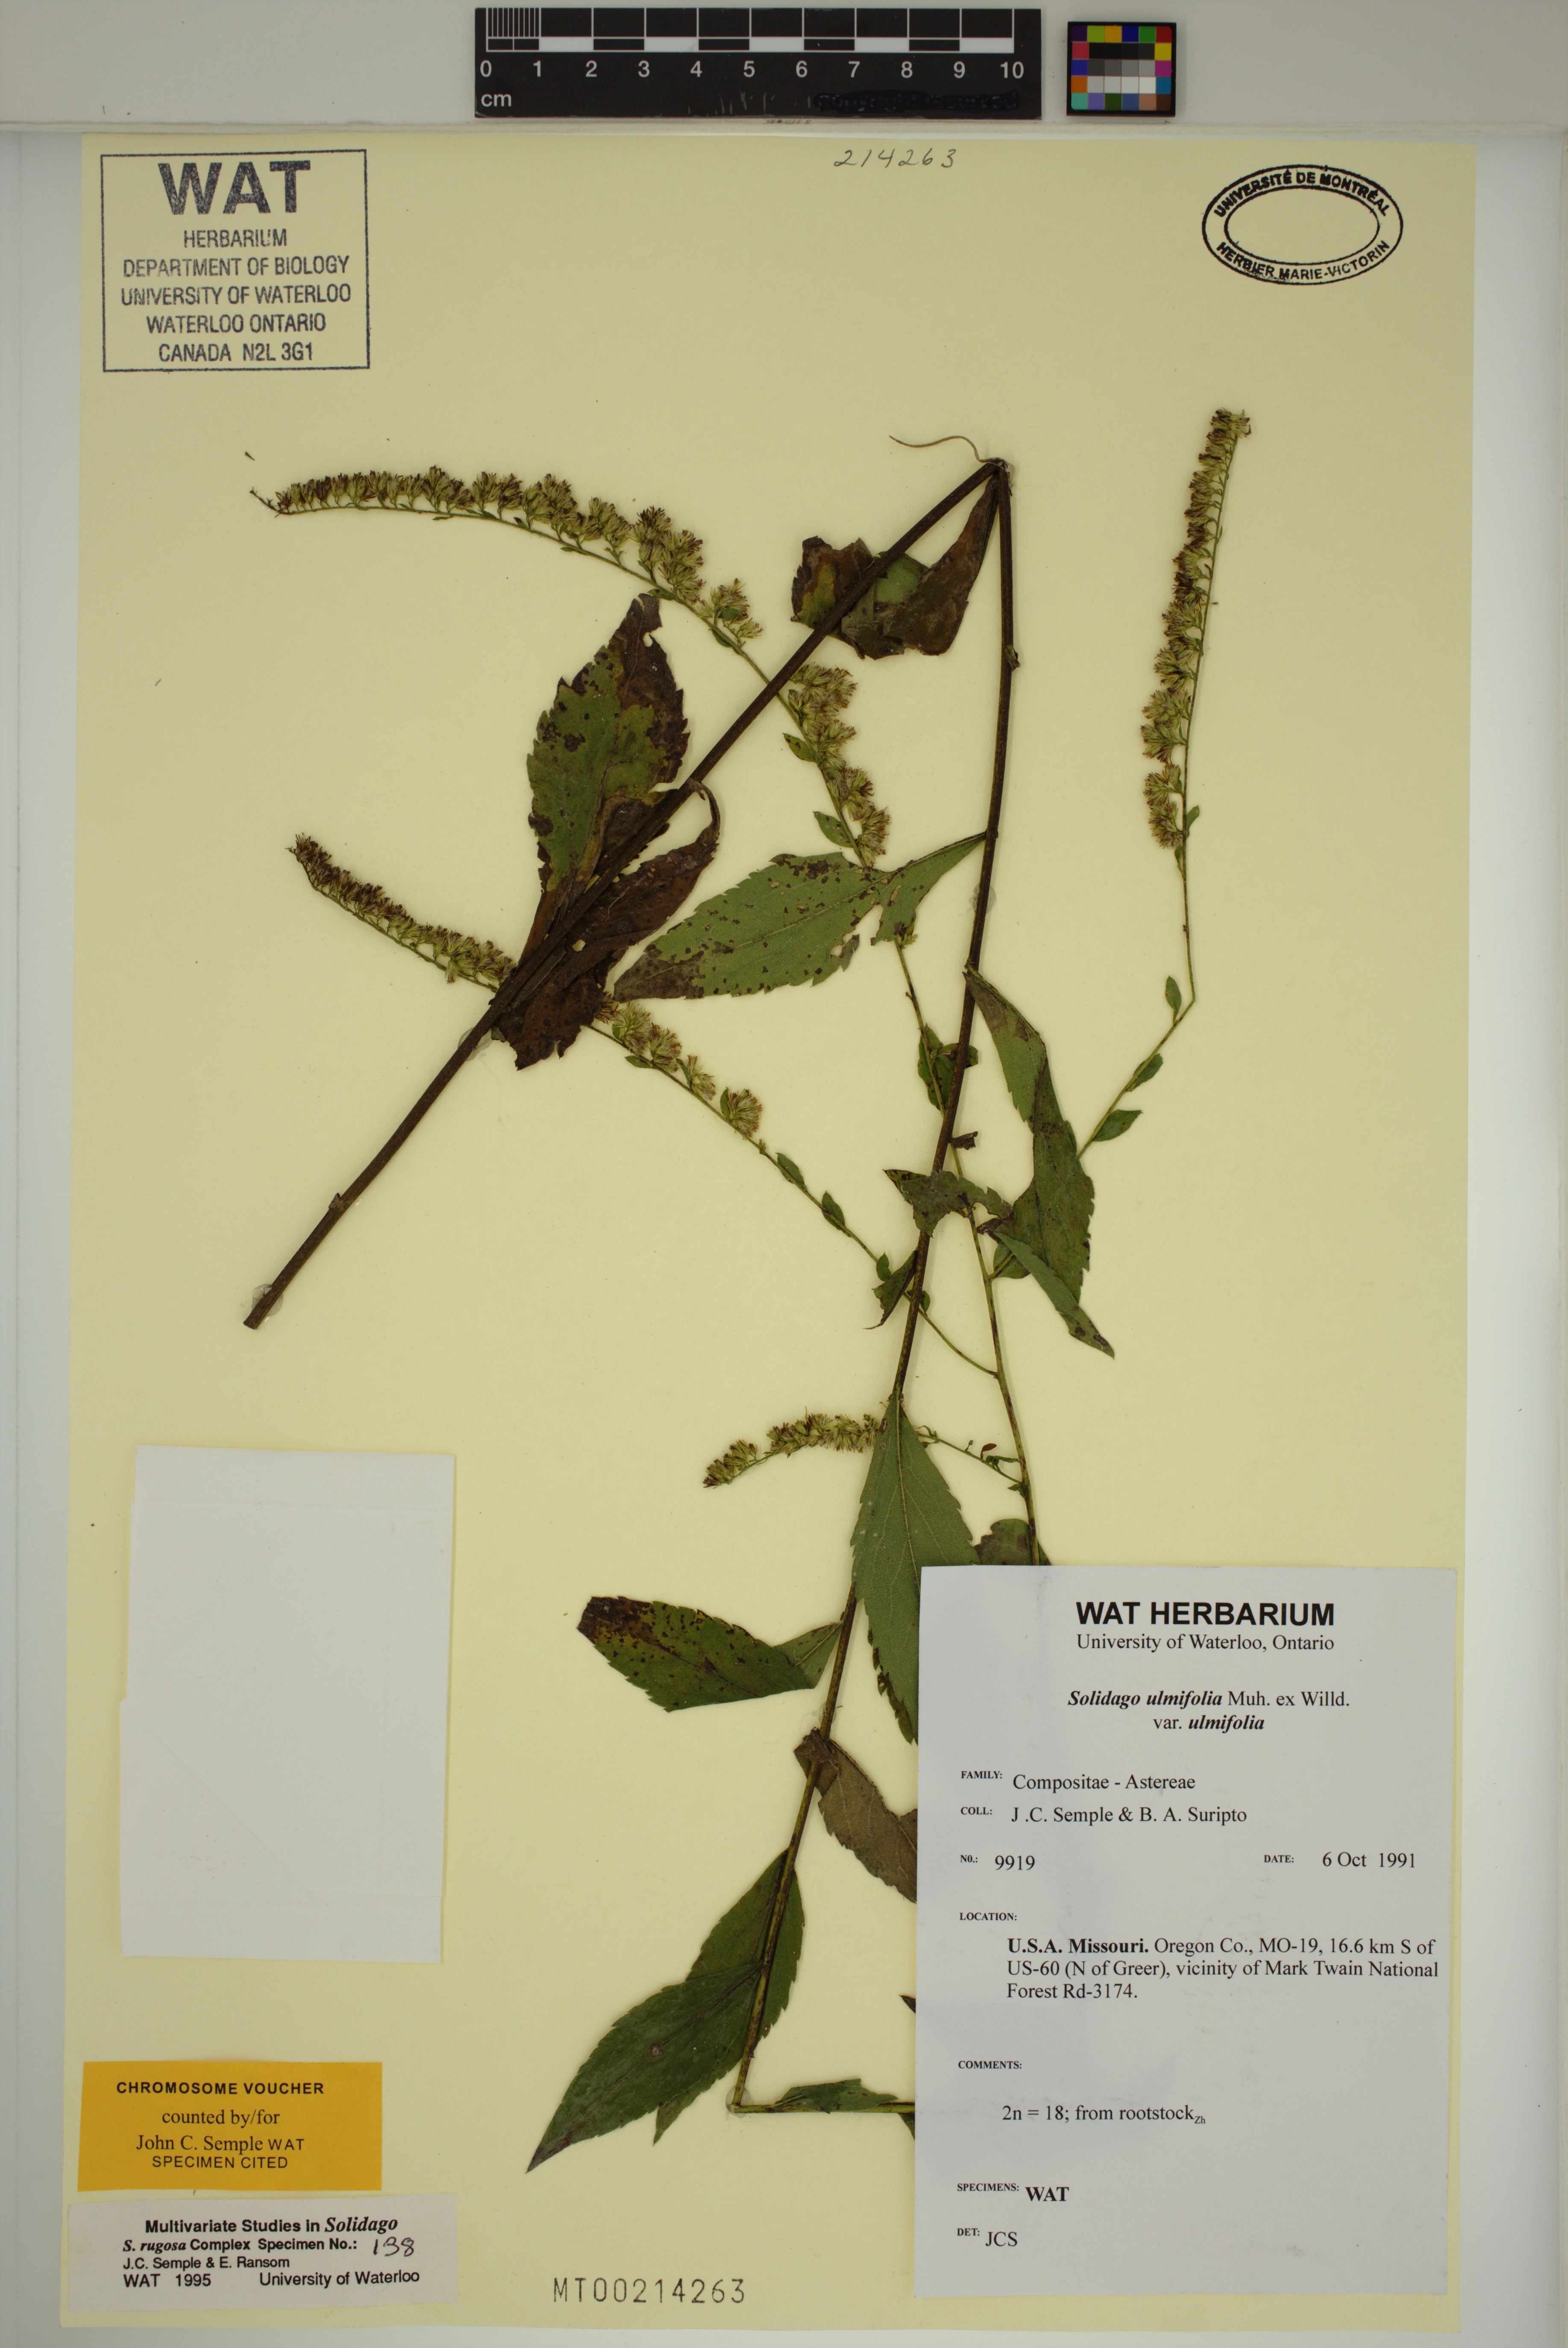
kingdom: Plantae
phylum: Tracheophyta
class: Magnoliopsida
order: Asterales
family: Asteraceae
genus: Solidago
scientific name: Solidago ulmifolia
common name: Elm-leaf goldenrod
